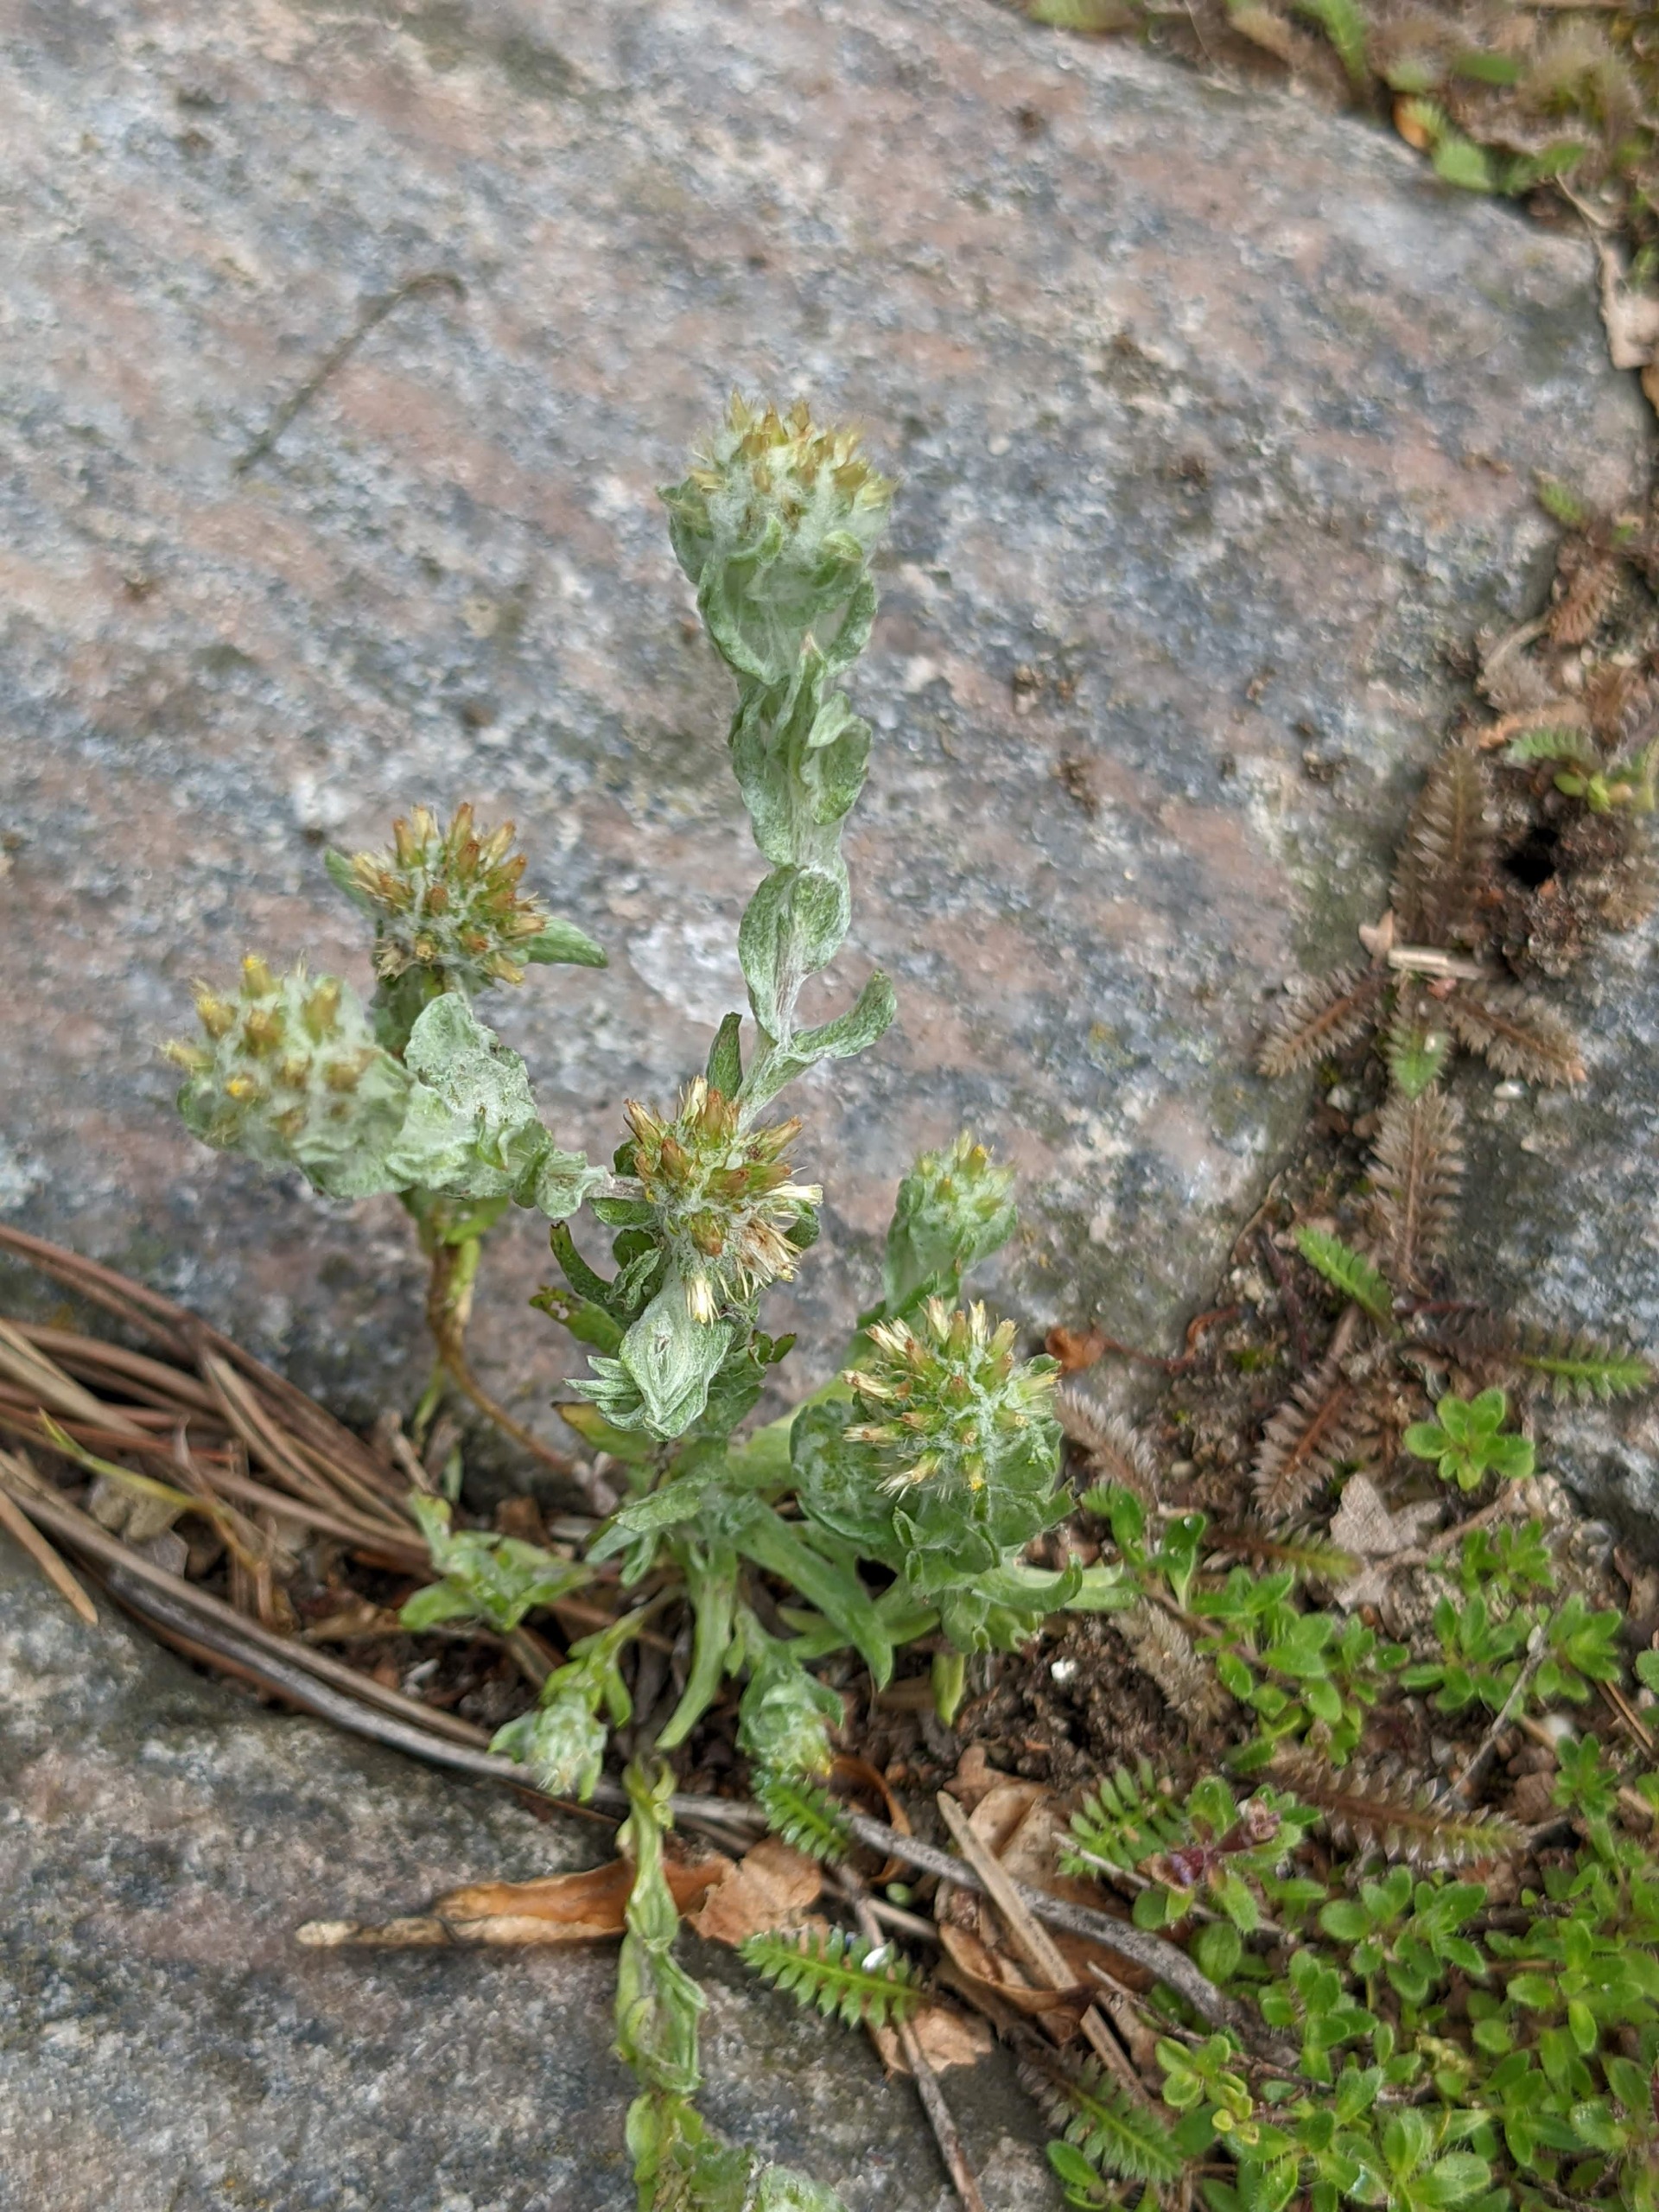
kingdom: Plantae
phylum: Tracheophyta
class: Magnoliopsida
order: Asterales
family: Asteraceae
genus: Filago
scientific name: Filago germanica
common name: Kugle-museurt
